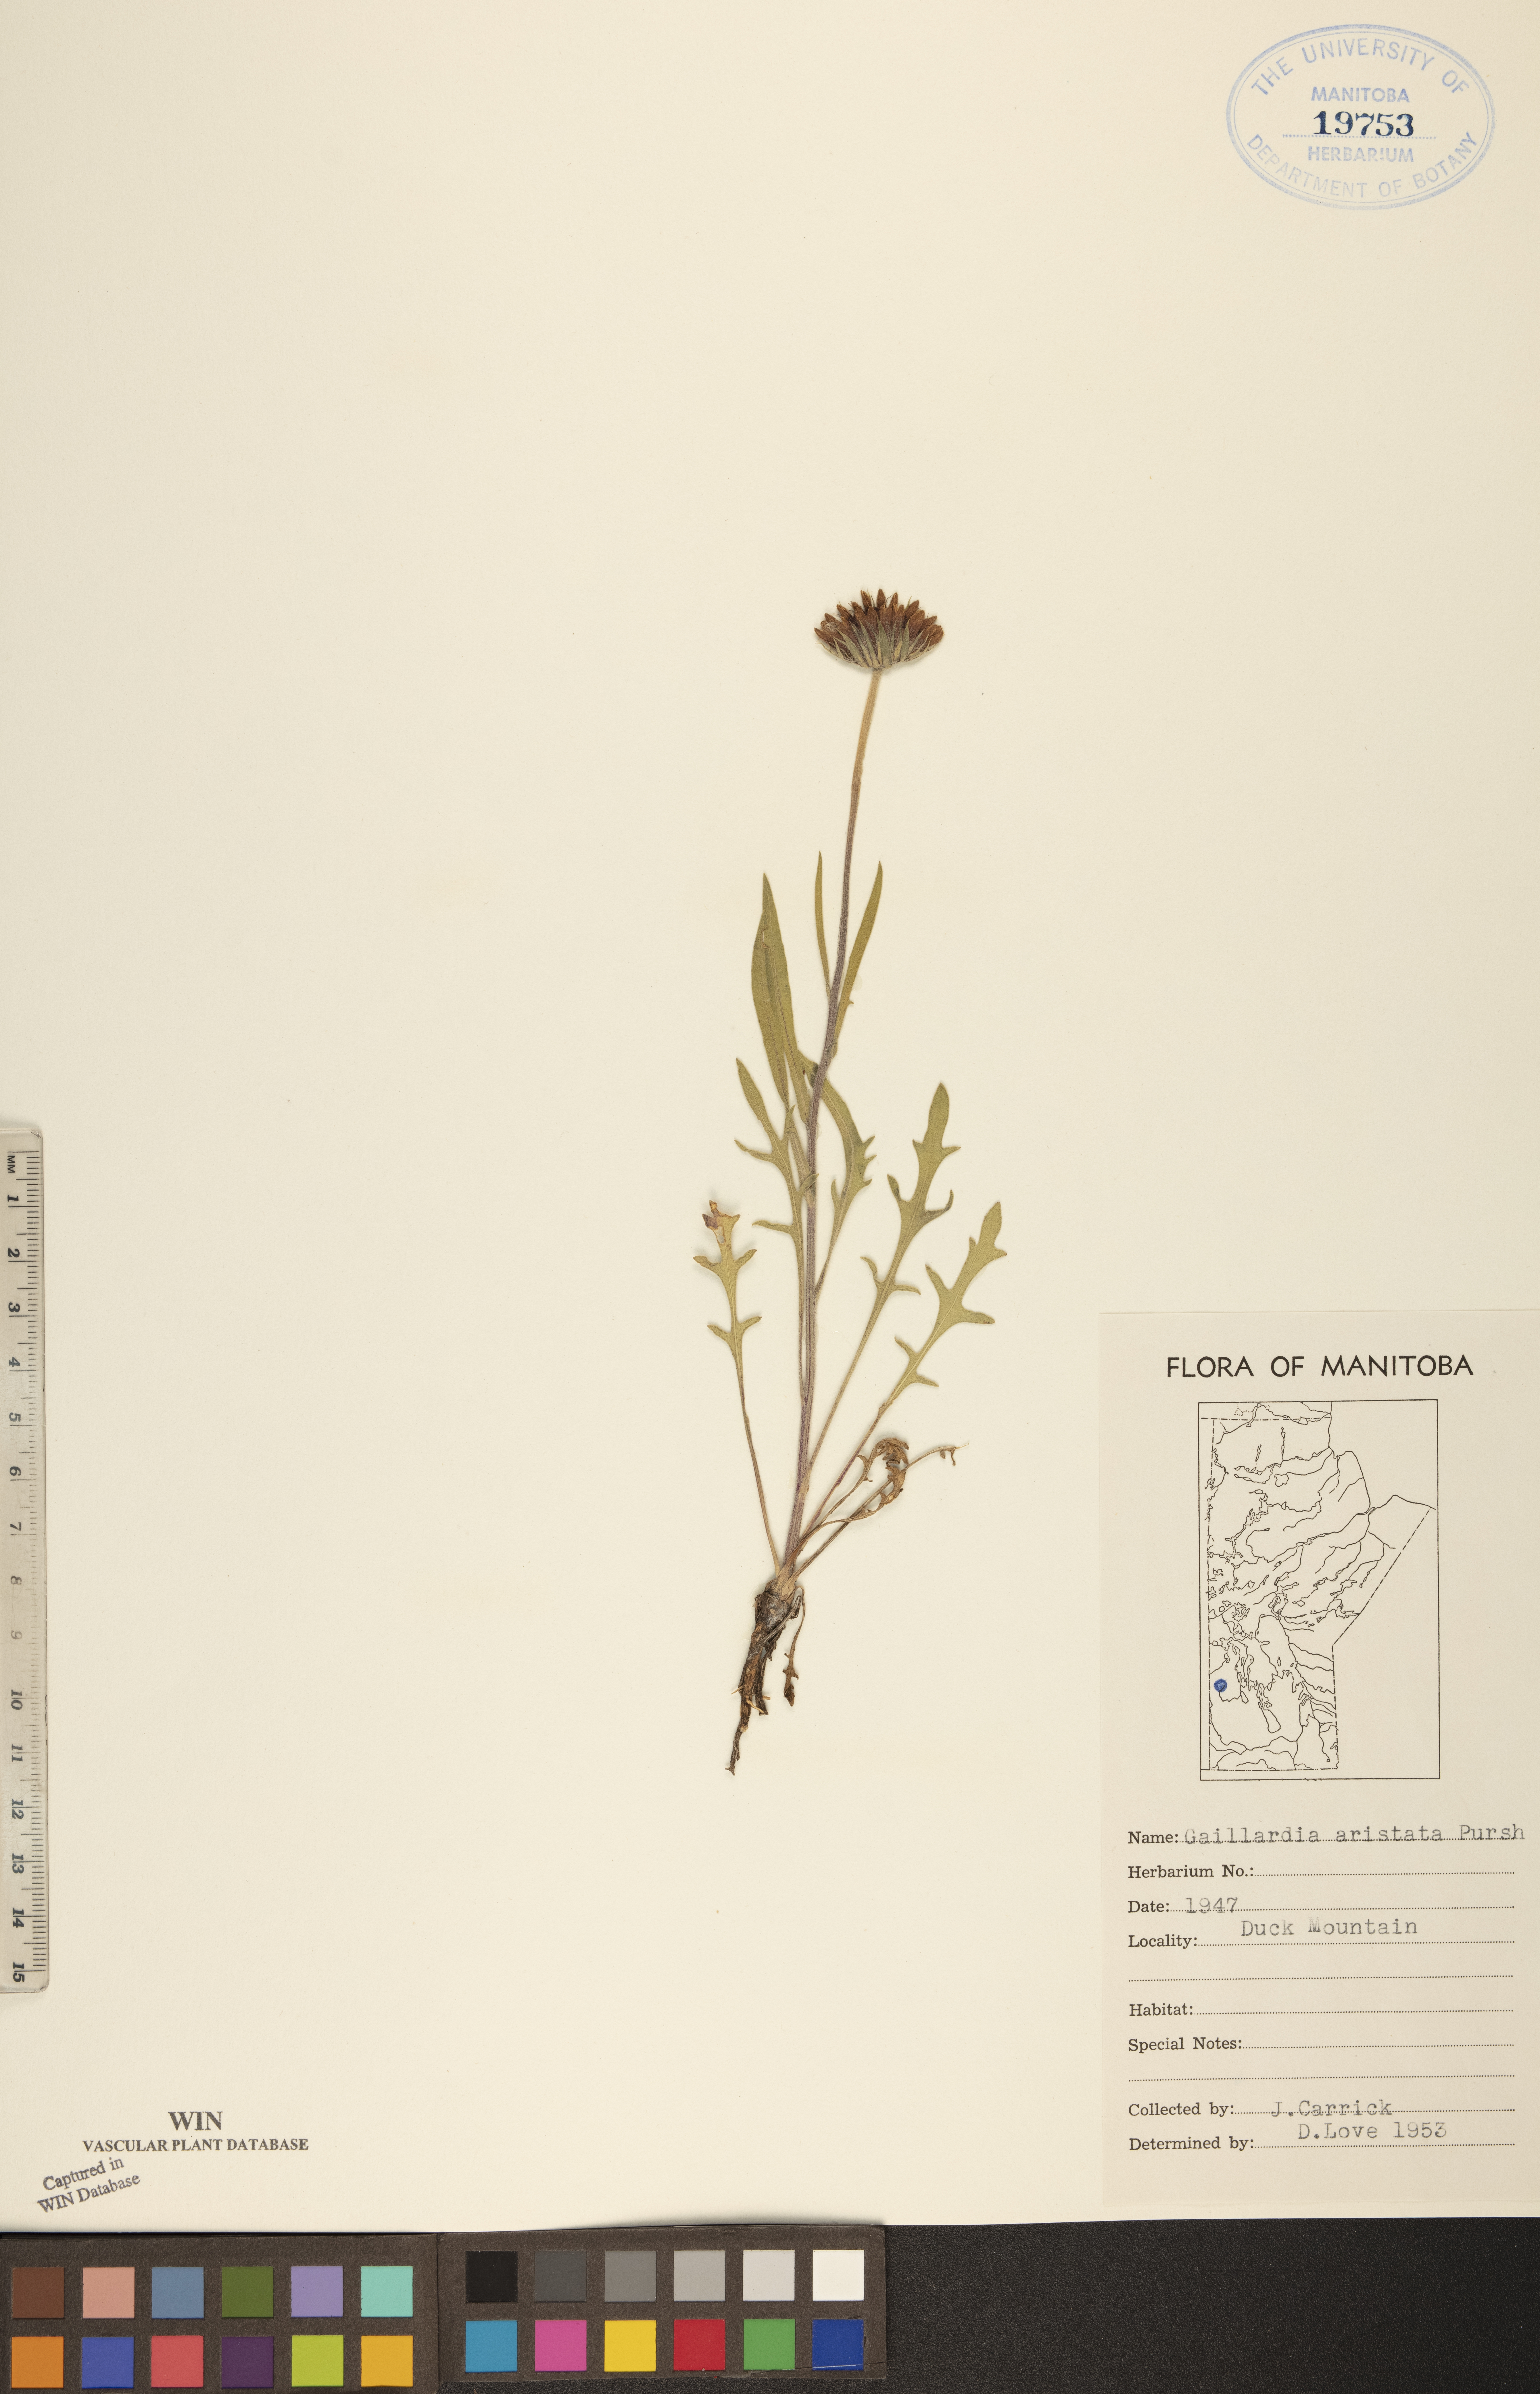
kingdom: Plantae
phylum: Tracheophyta
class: Magnoliopsida
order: Asterales
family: Asteraceae
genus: Gaillardia
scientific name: Gaillardia aristata
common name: Blanket-flower
